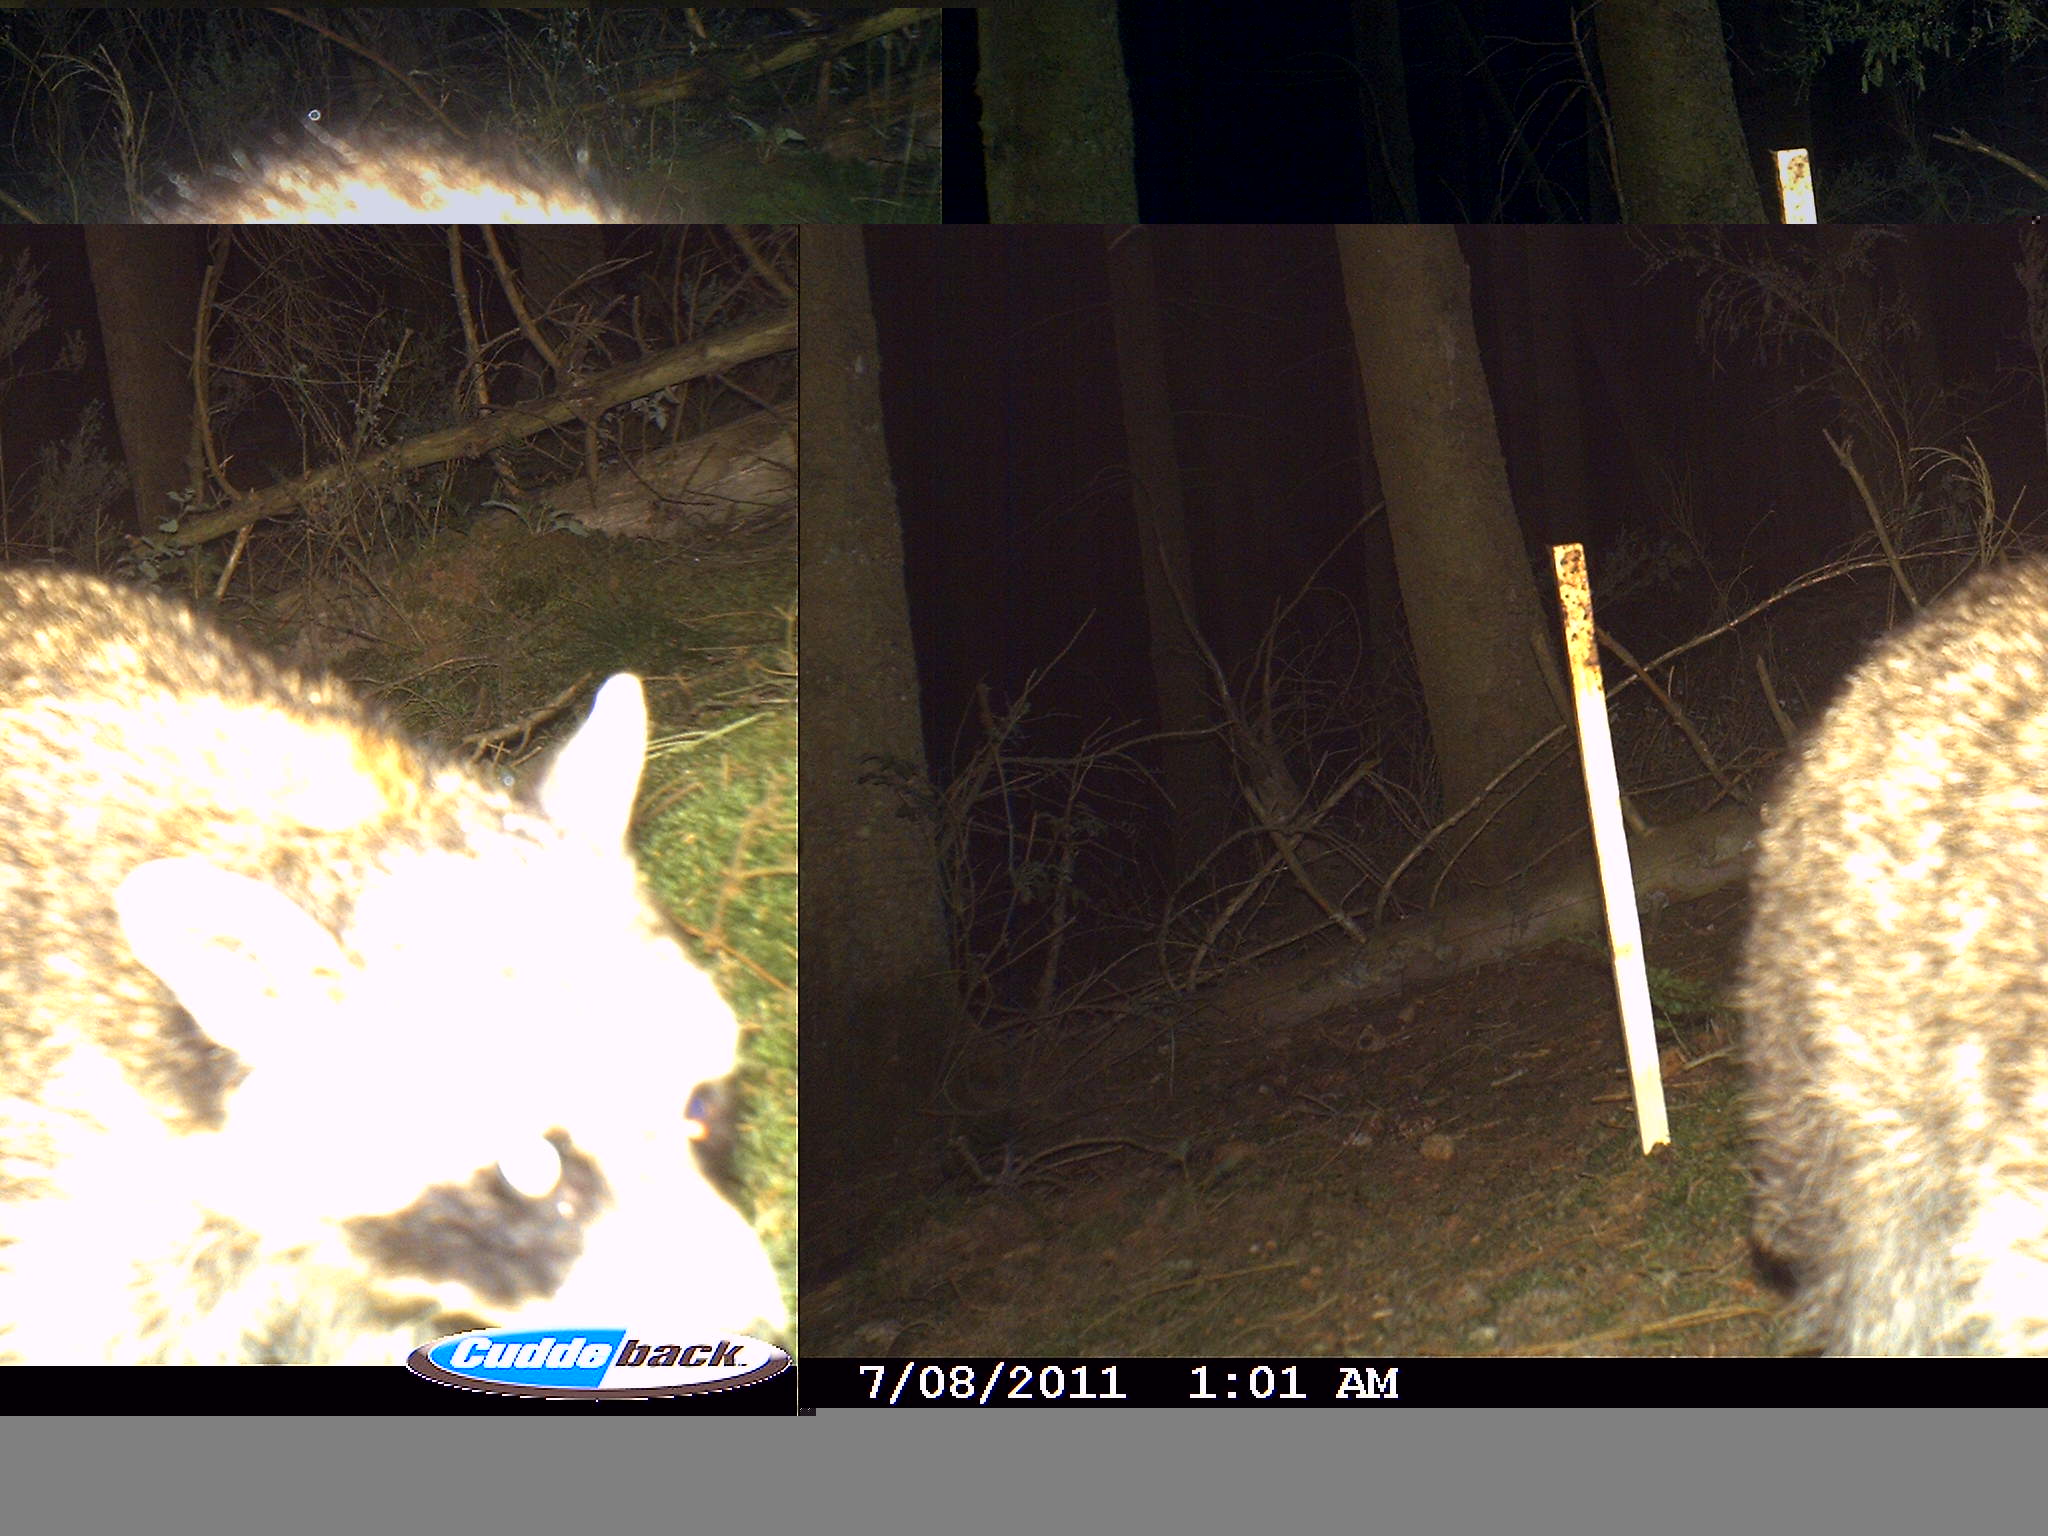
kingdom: Animalia
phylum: Chordata
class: Mammalia
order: Carnivora
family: Procyonidae
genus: Procyon
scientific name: Procyon lotor
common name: Raccoon
